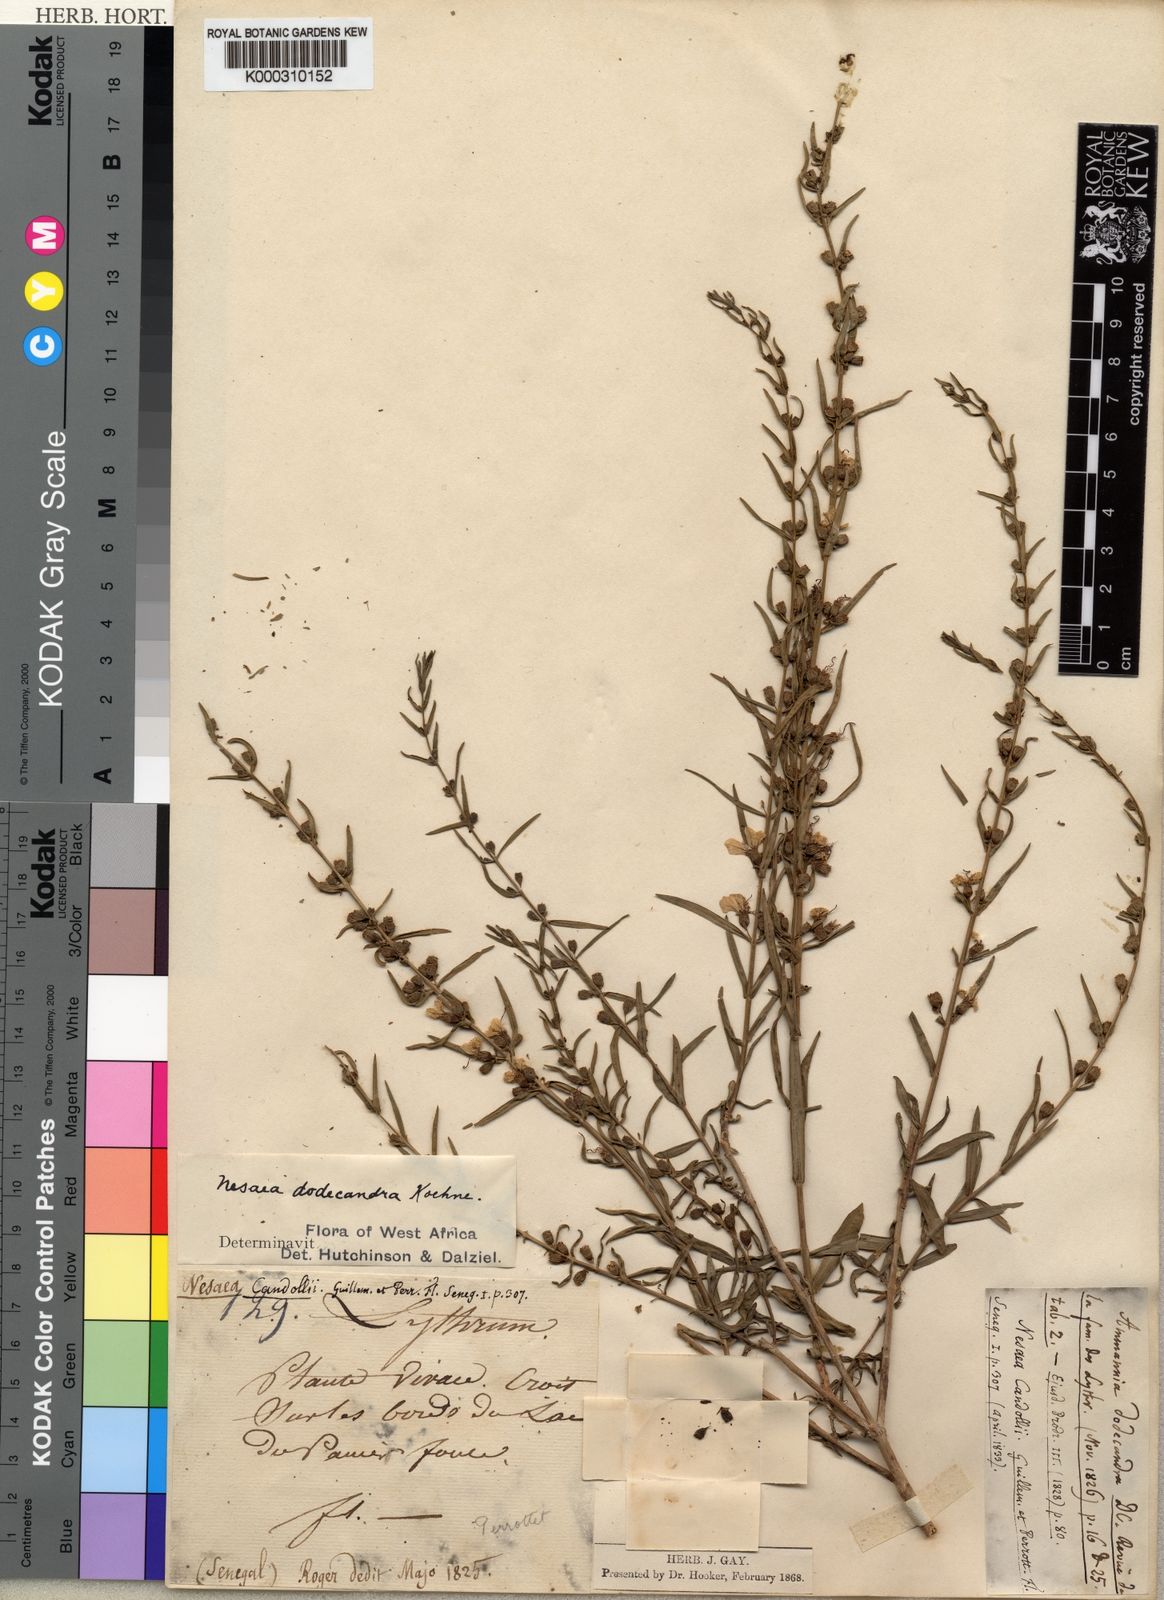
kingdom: Plantae
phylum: Tracheophyta
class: Magnoliopsida
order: Myrtales
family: Lythraceae
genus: Ammannia
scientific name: Ammannia dodecandra
